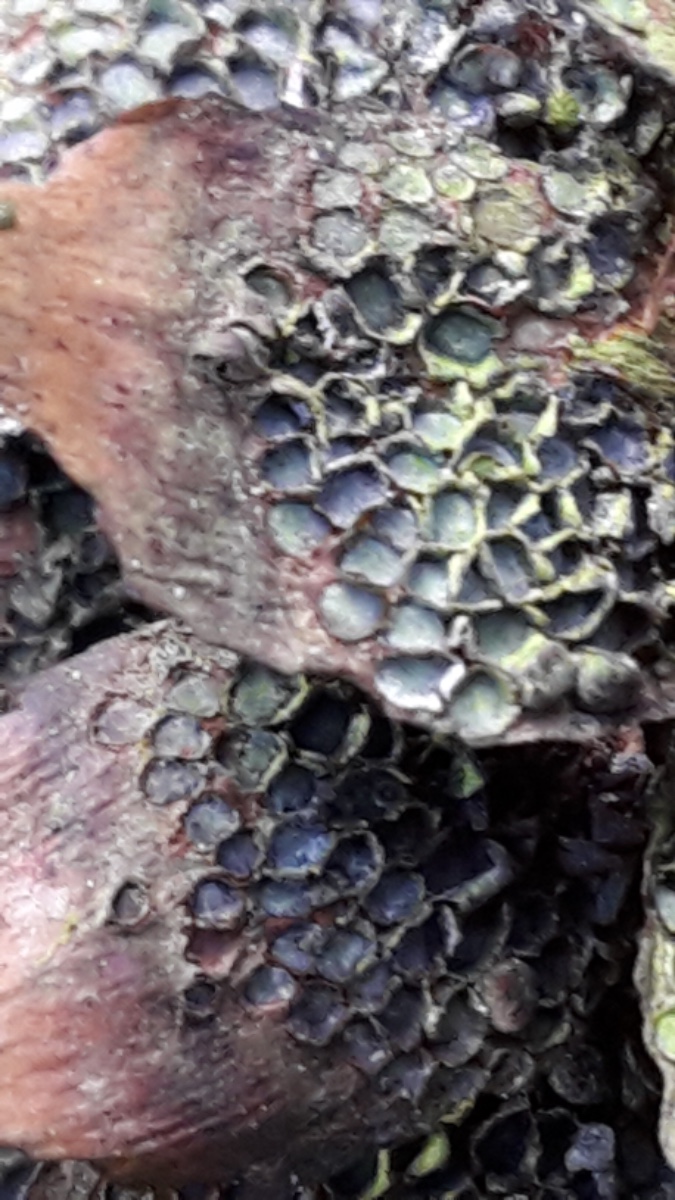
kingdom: Fungi
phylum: Basidiomycota
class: Pucciniomycetes
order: Pucciniales
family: Pucciniastraceae
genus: Thekopsora
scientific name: Thekopsora areolata
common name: grankogle-nålerust
